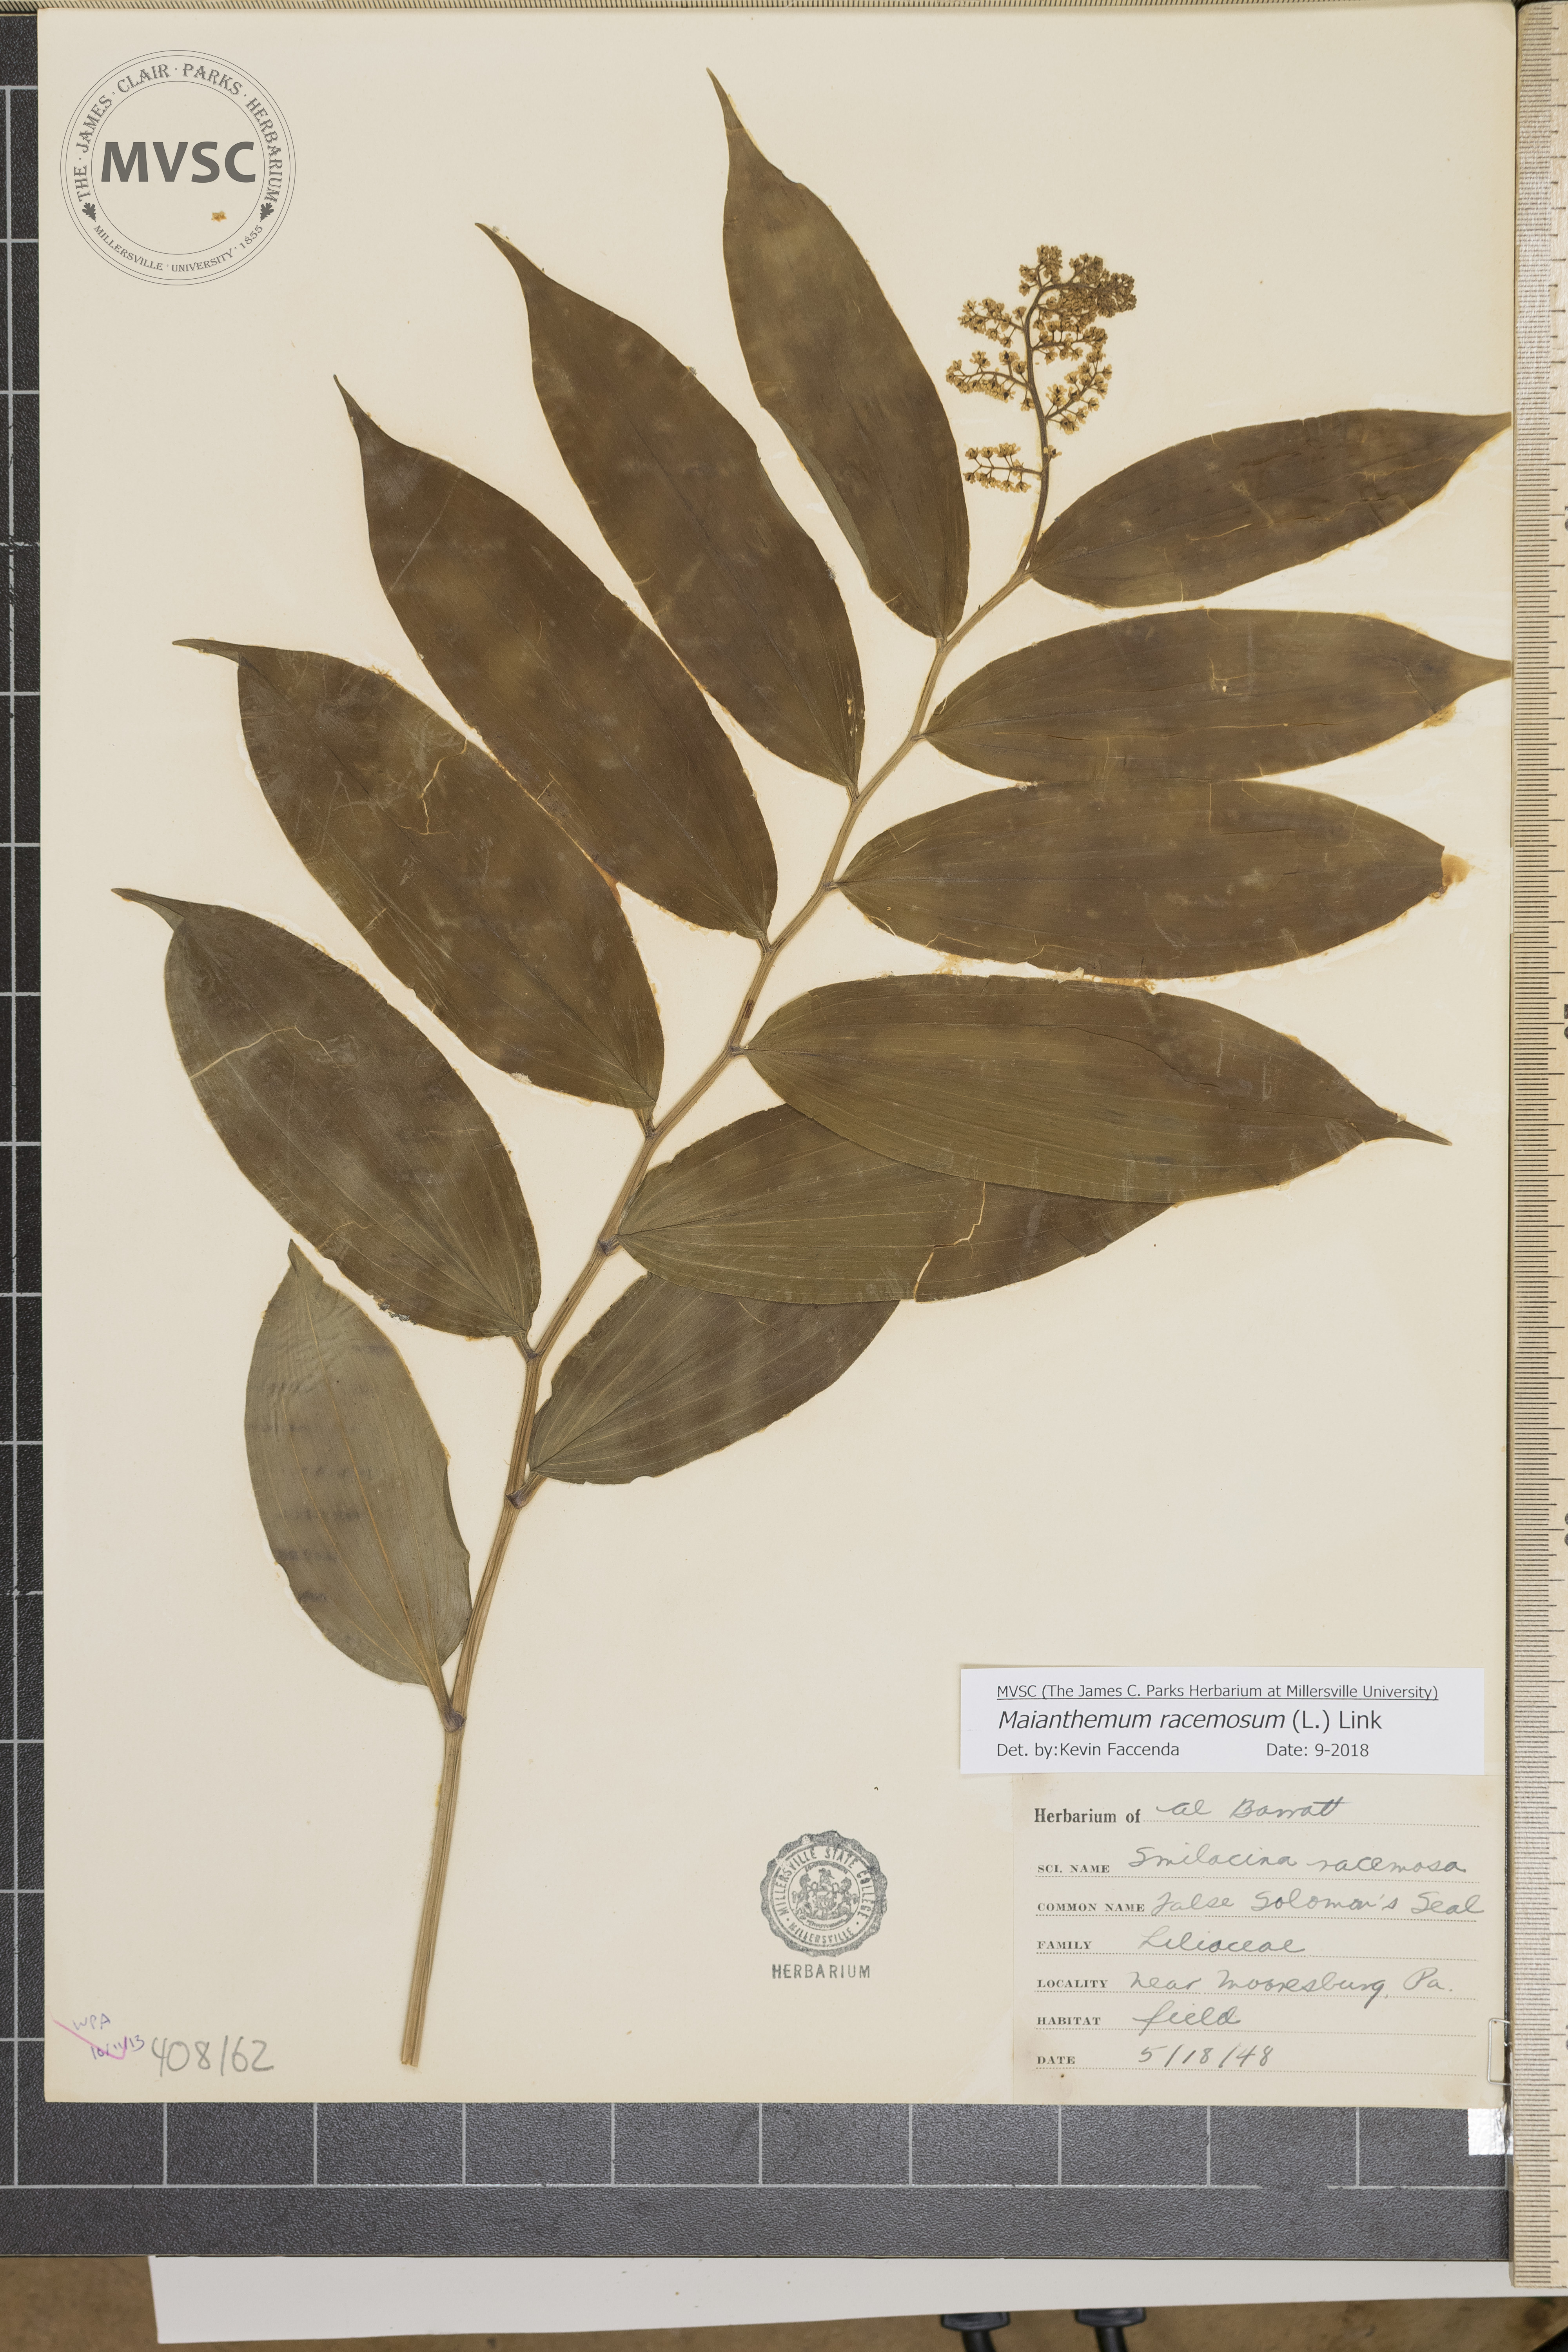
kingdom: Plantae
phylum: Tracheophyta
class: Liliopsida
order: Asparagales
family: Asparagaceae
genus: Maianthemum
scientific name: Maianthemum racemosum
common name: False spikenard
